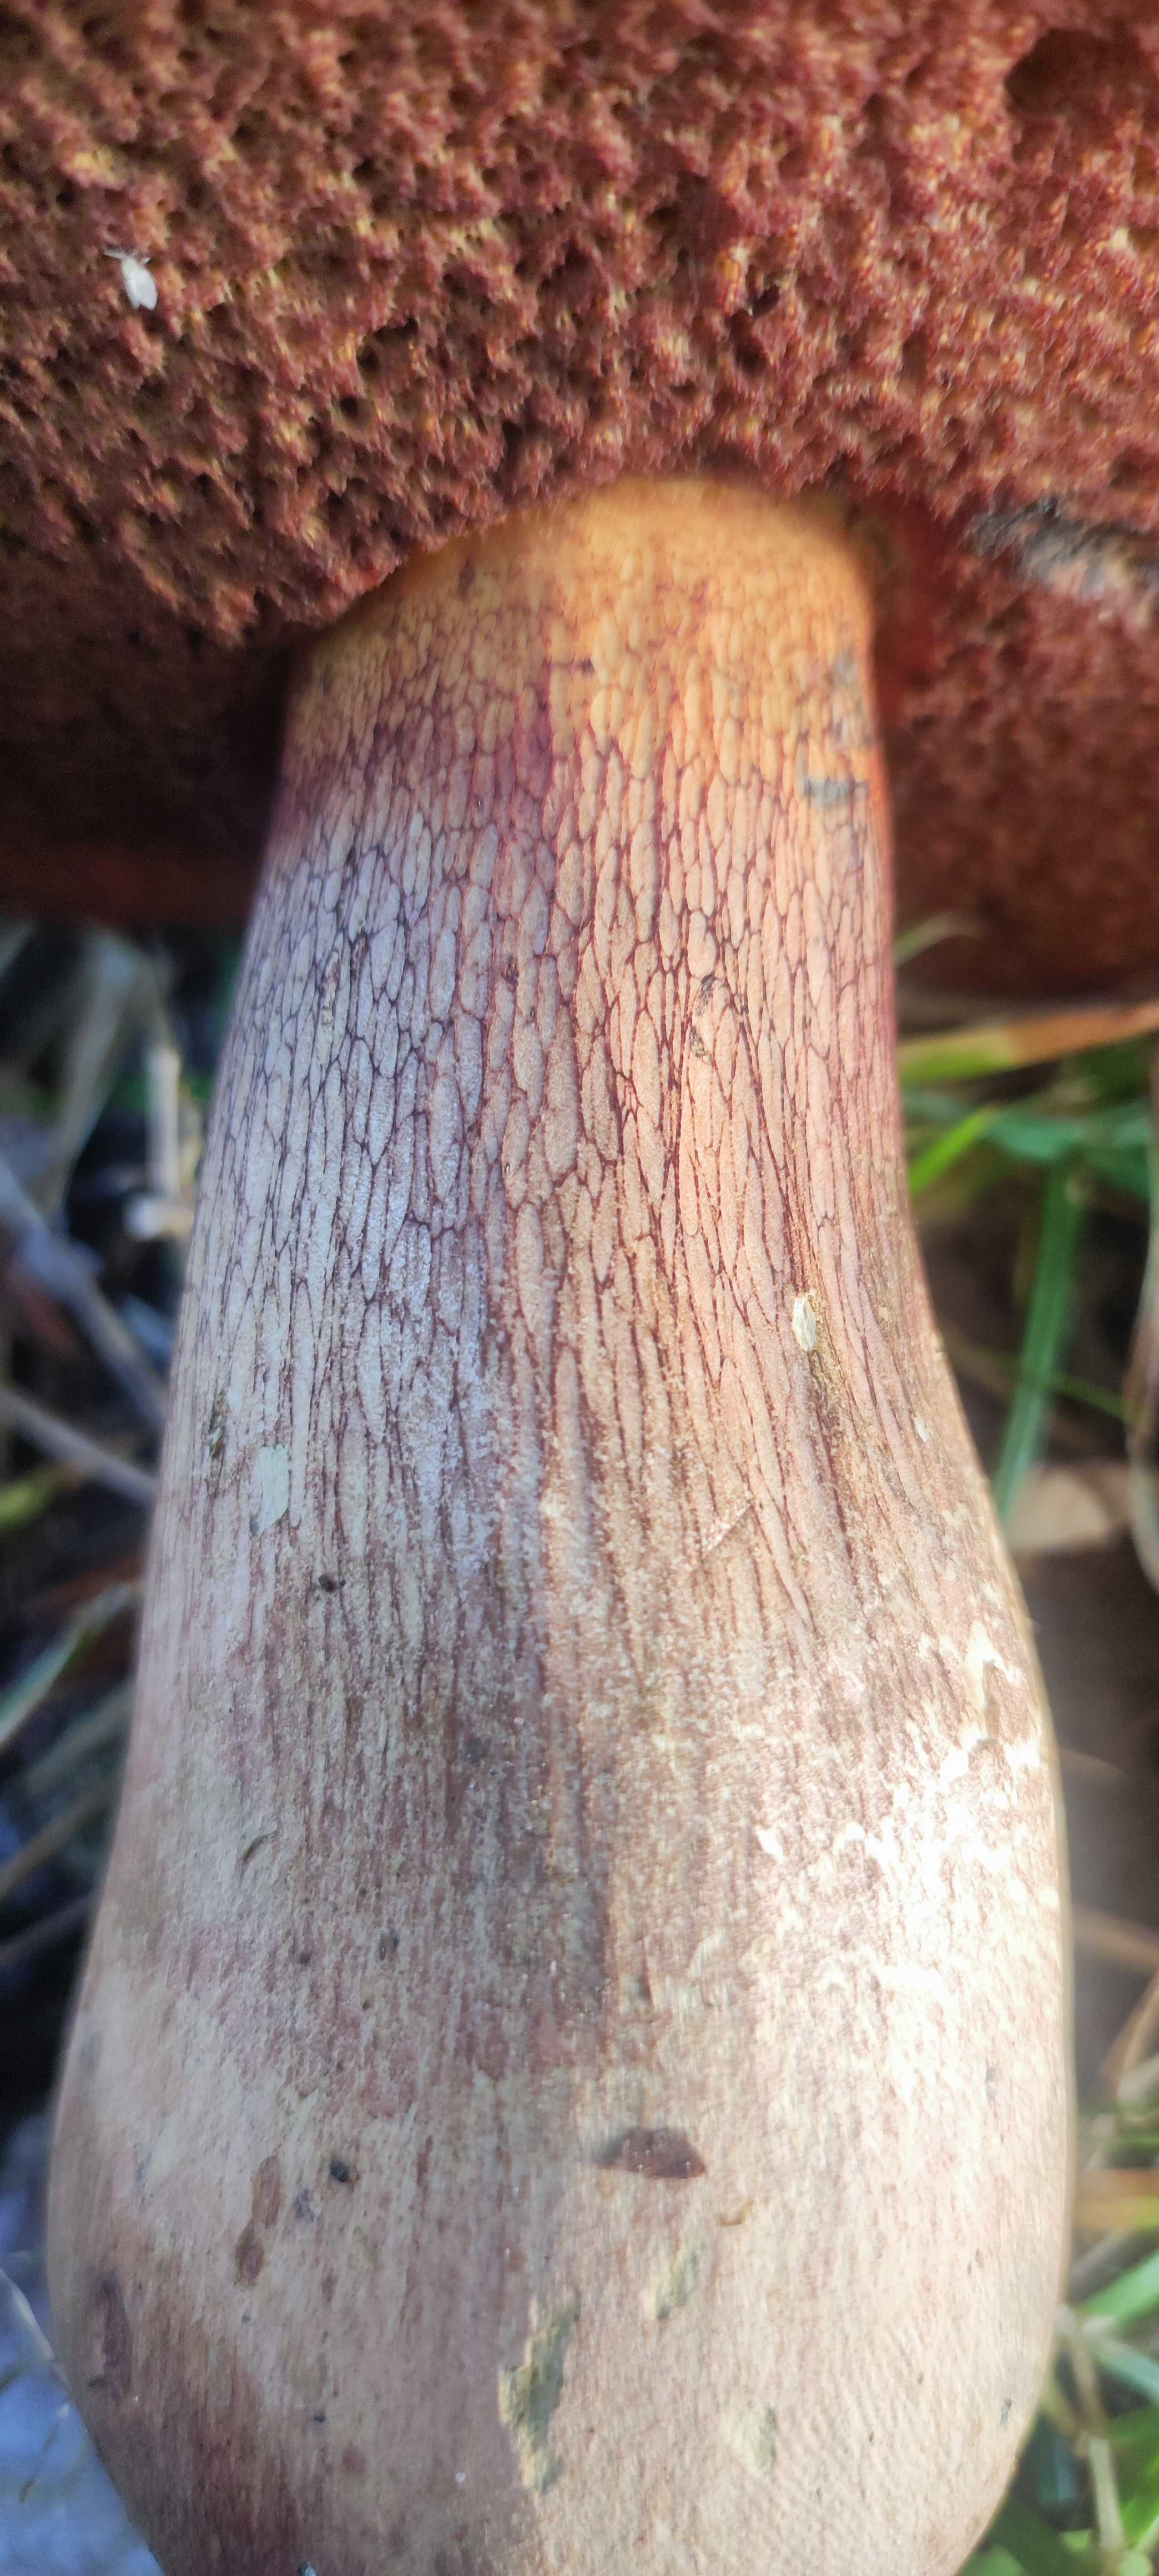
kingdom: Fungi
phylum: Basidiomycota
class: Agaricomycetes
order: Boletales
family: Boletaceae
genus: Suillellus
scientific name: Suillellus luridus
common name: netstokket indigorørhat
